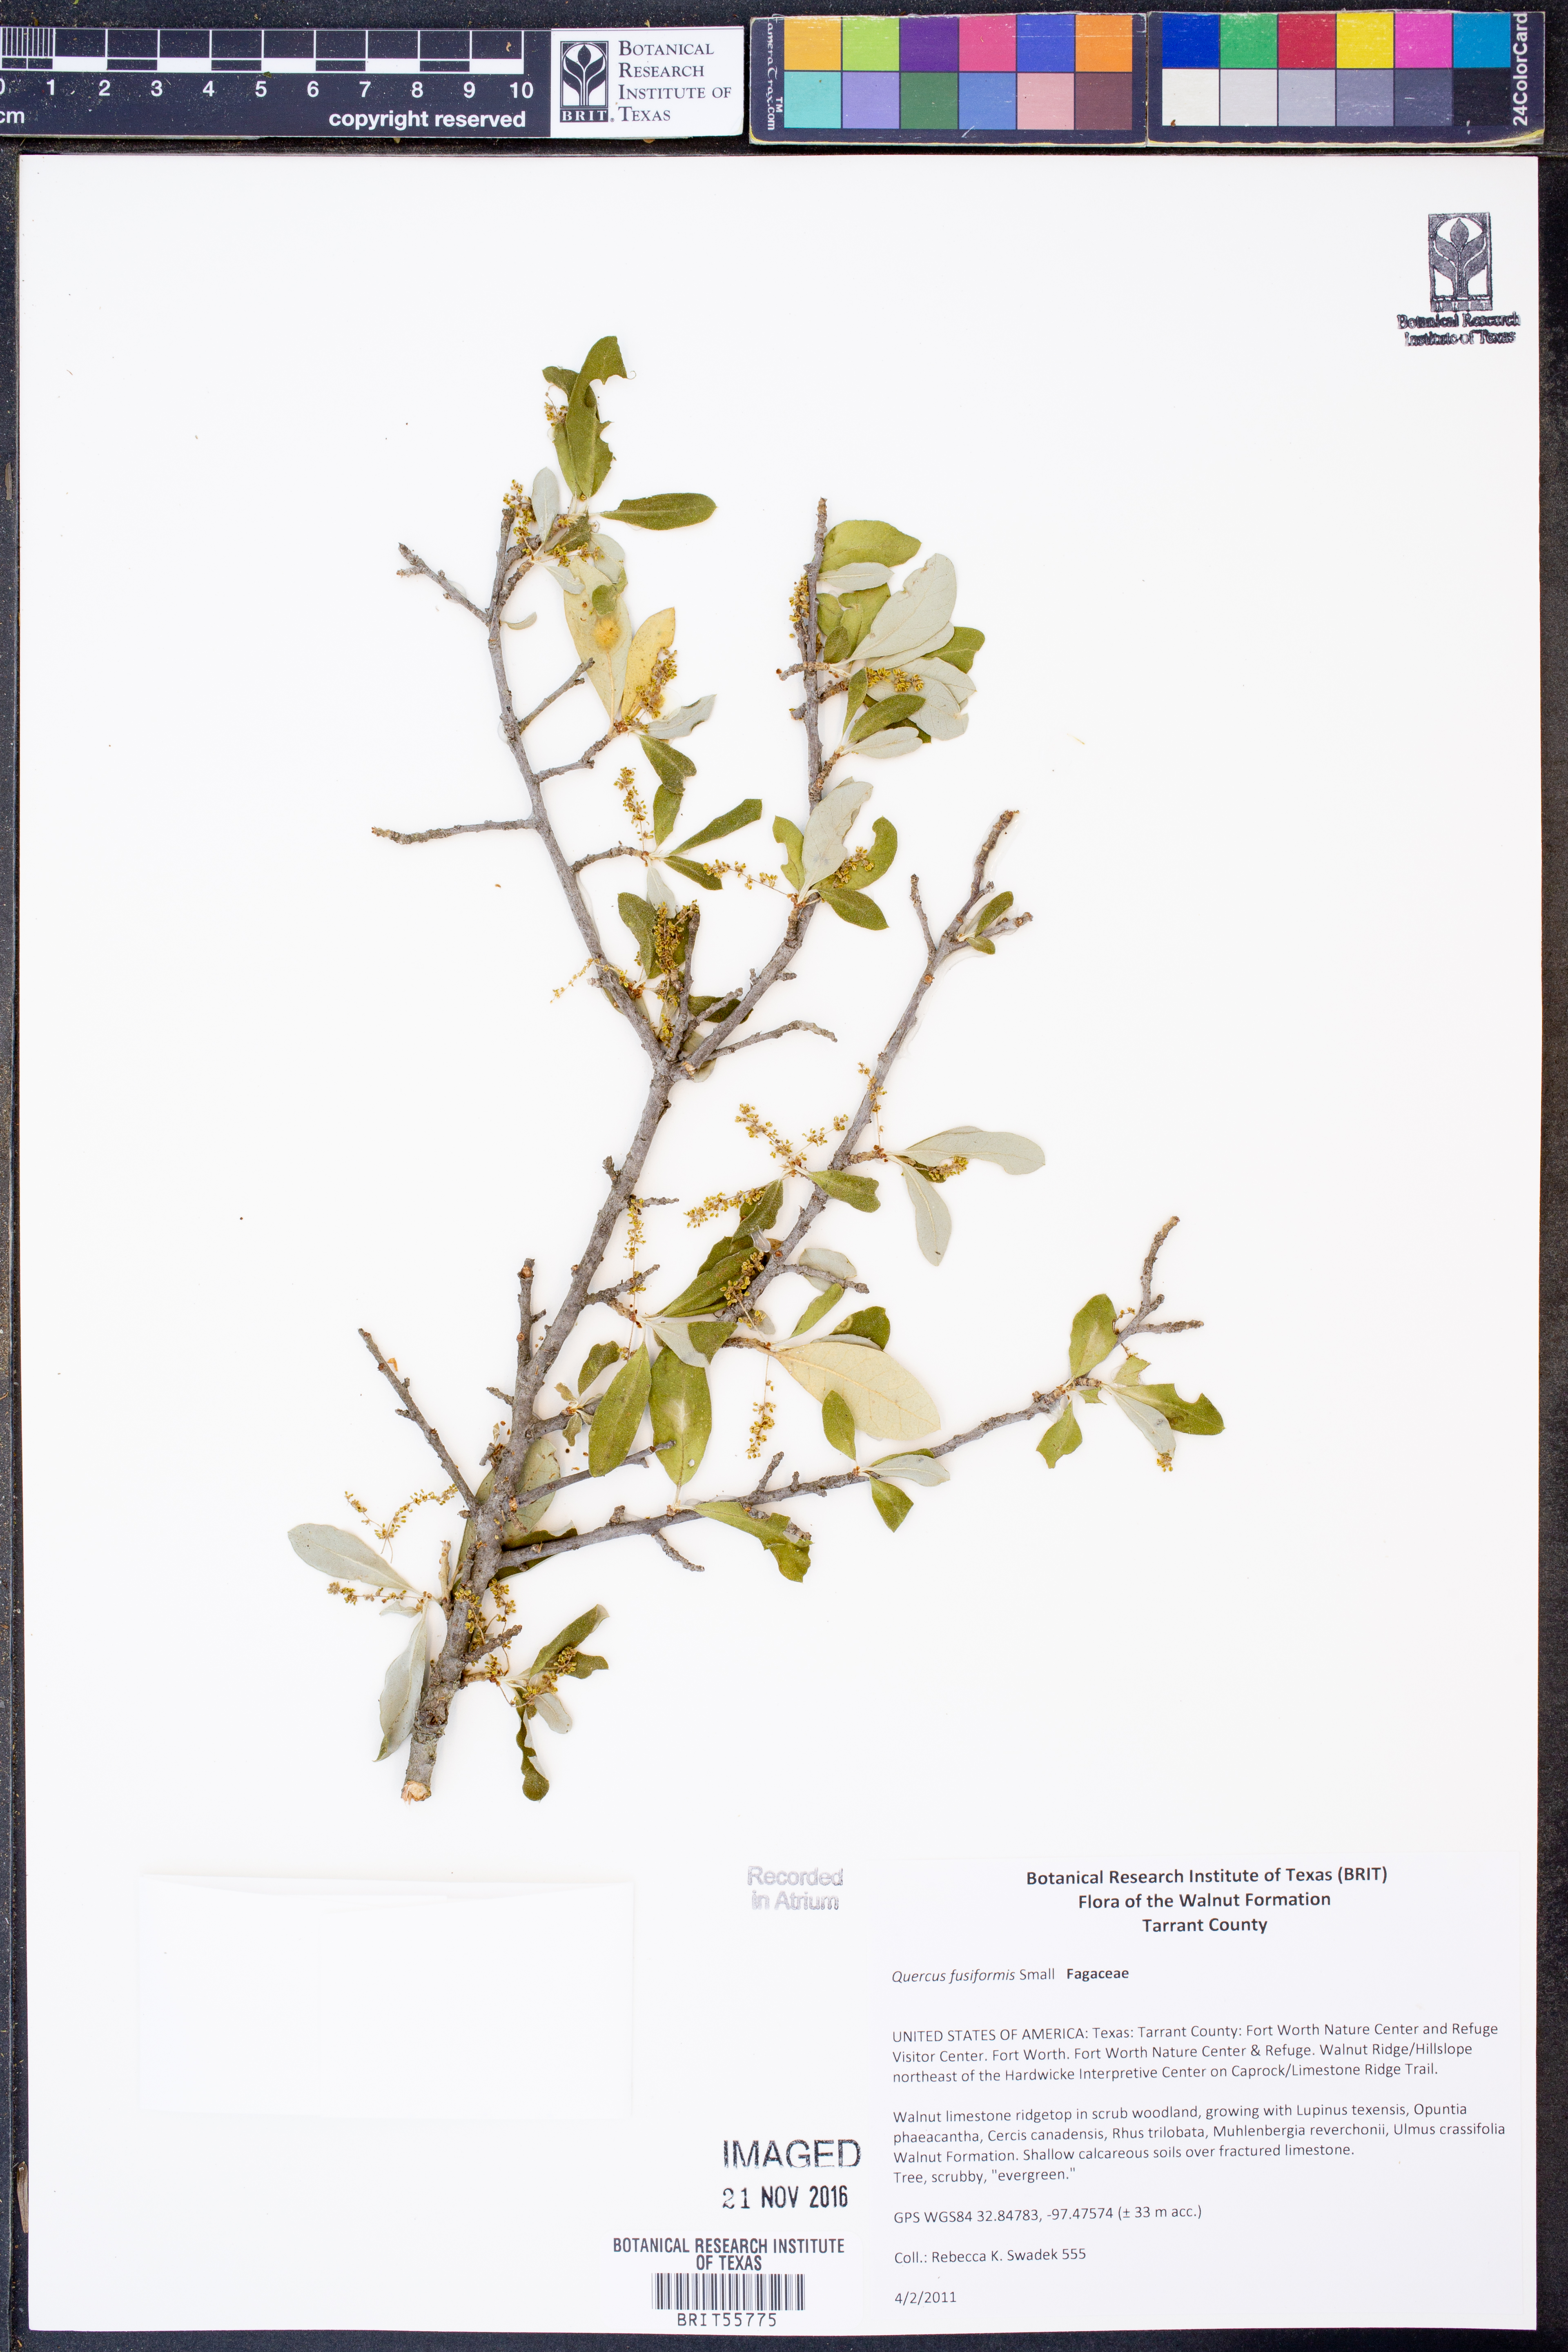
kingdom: Plantae
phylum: Tracheophyta
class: Magnoliopsida
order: Fagales
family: Fagaceae
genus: Quercus
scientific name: Quercus fusiformis
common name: Texas live oak
